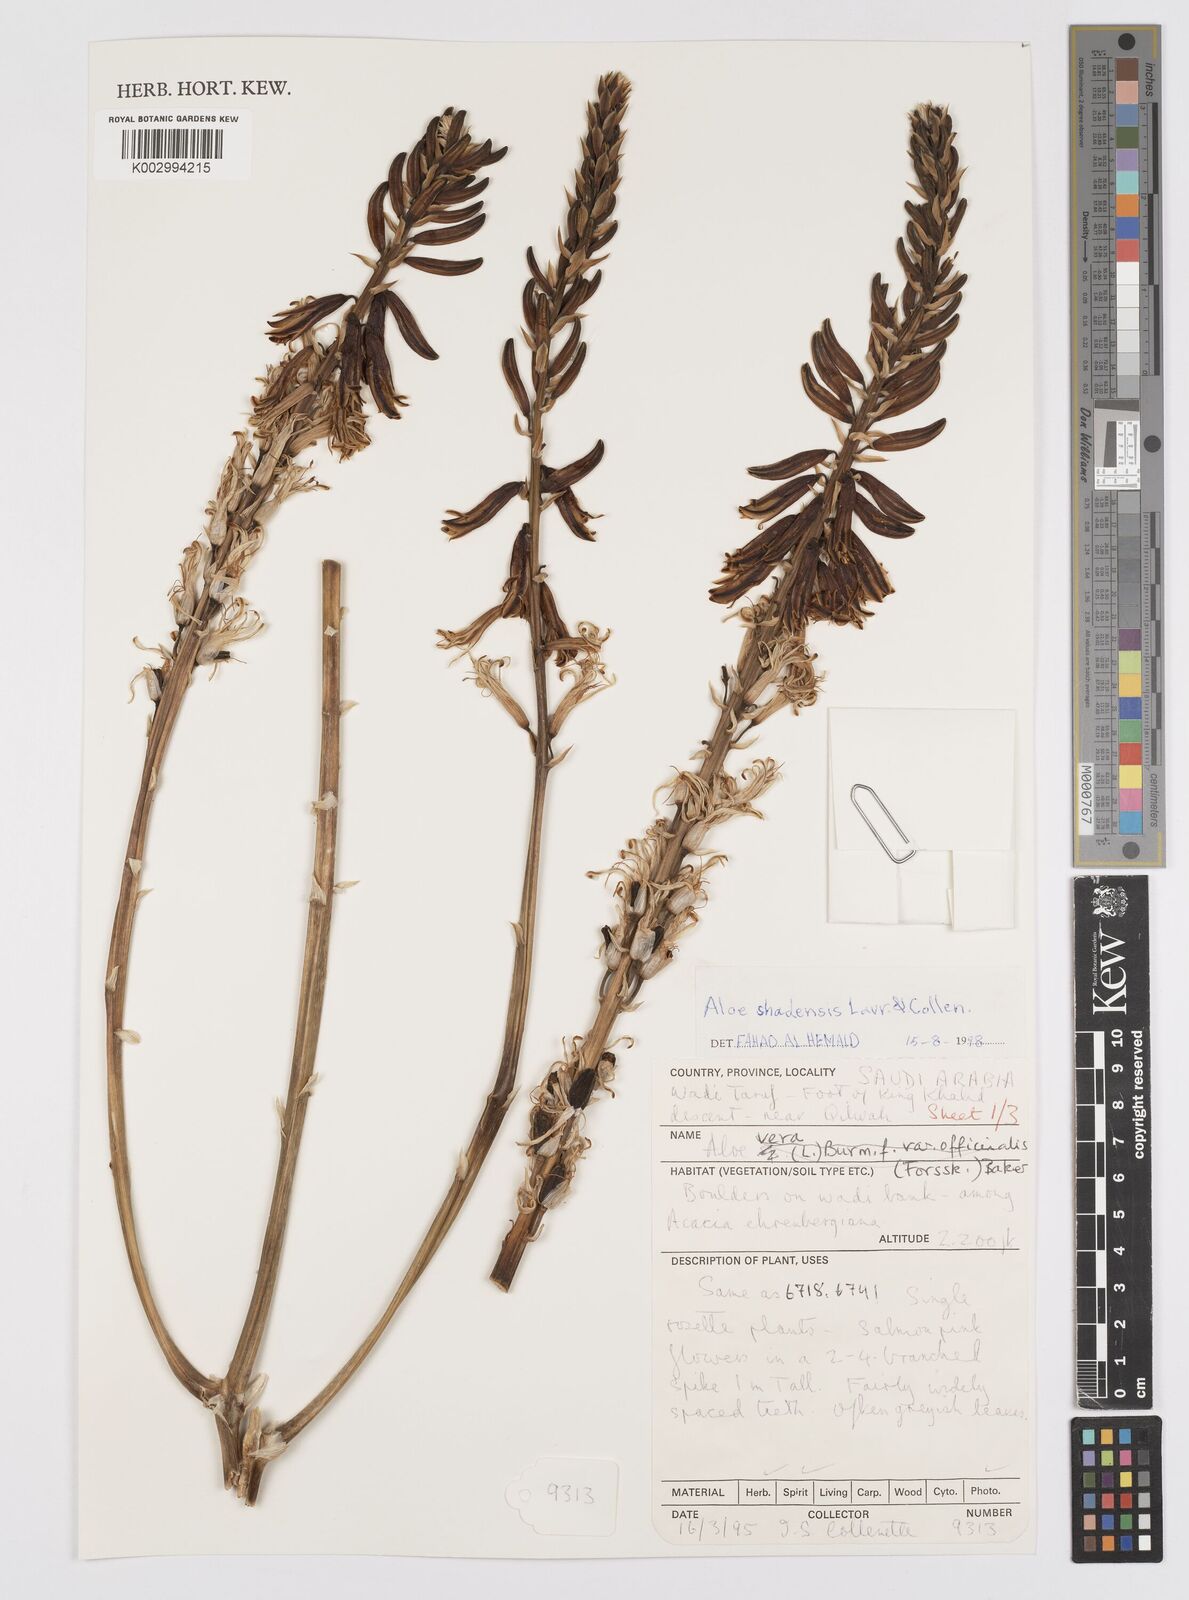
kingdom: Plantae
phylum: Tracheophyta
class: Liliopsida
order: Asparagales
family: Asphodelaceae
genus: Aloe
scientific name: Aloe shadensis
